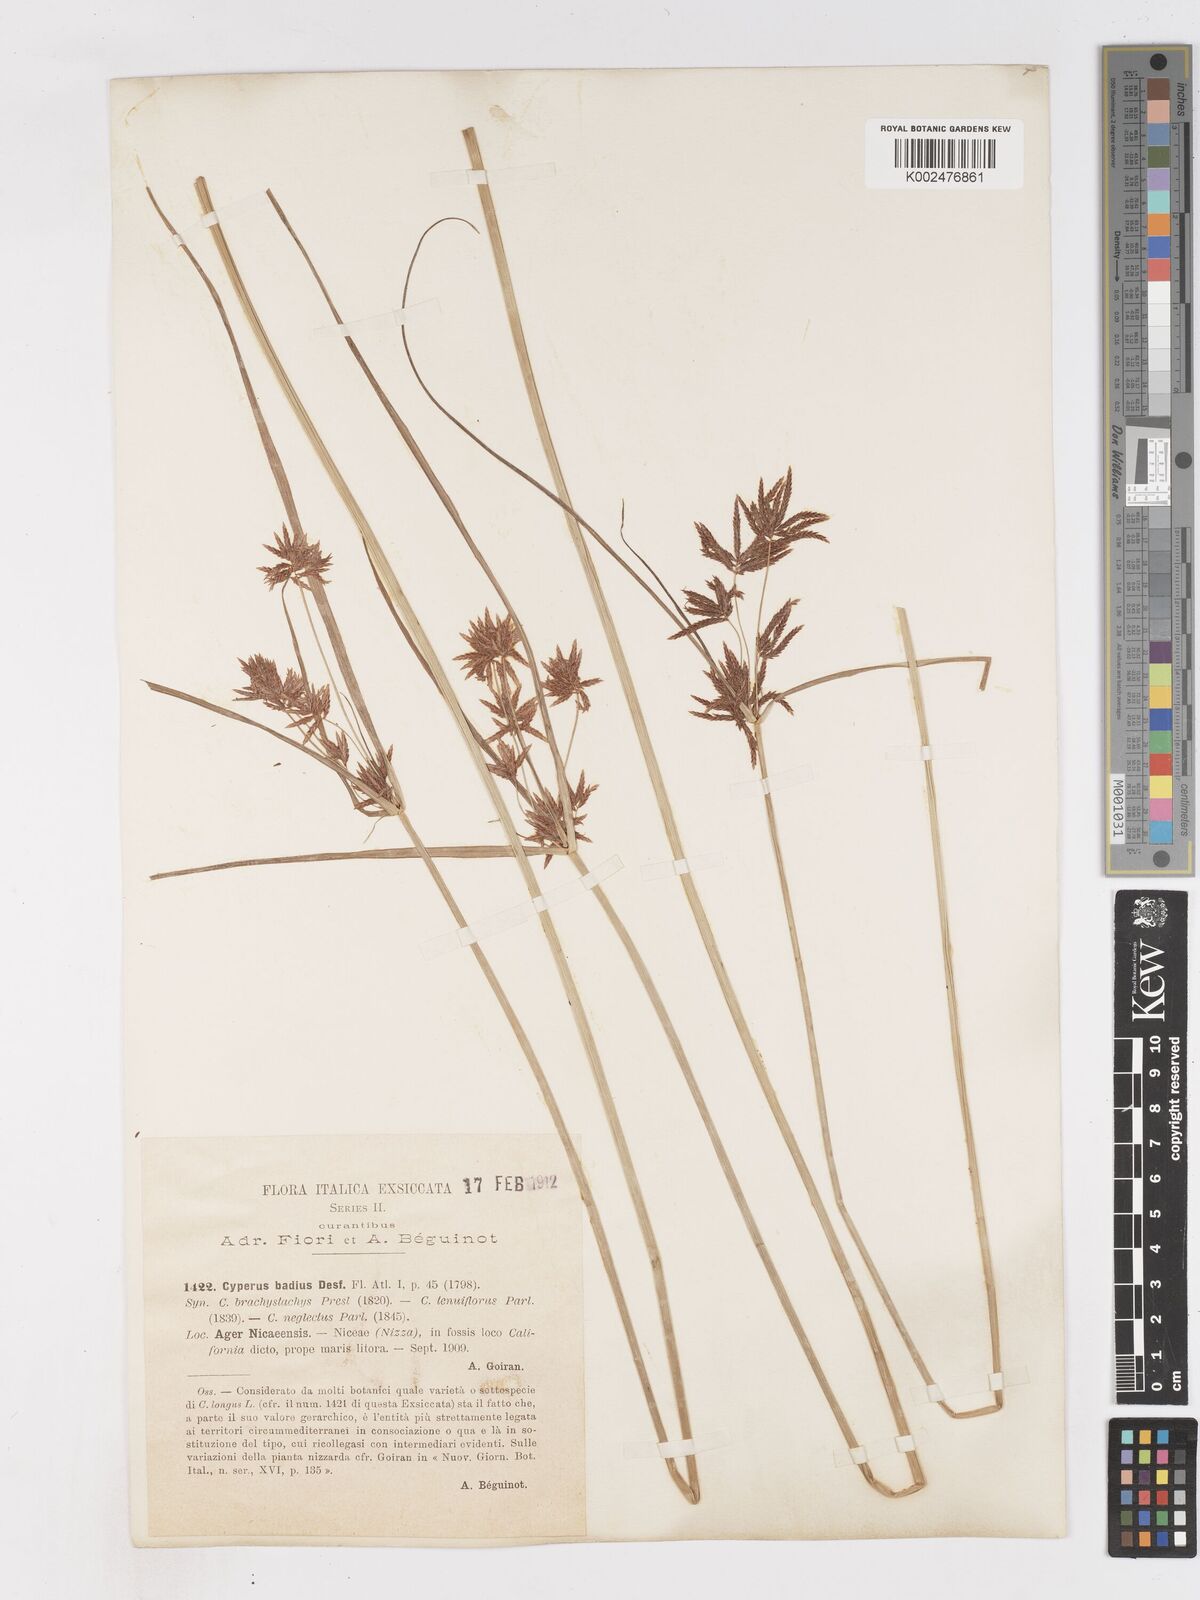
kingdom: Plantae
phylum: Tracheophyta
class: Liliopsida
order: Poales
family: Cyperaceae
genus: Cyperus
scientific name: Cyperus longus
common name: Galingale
